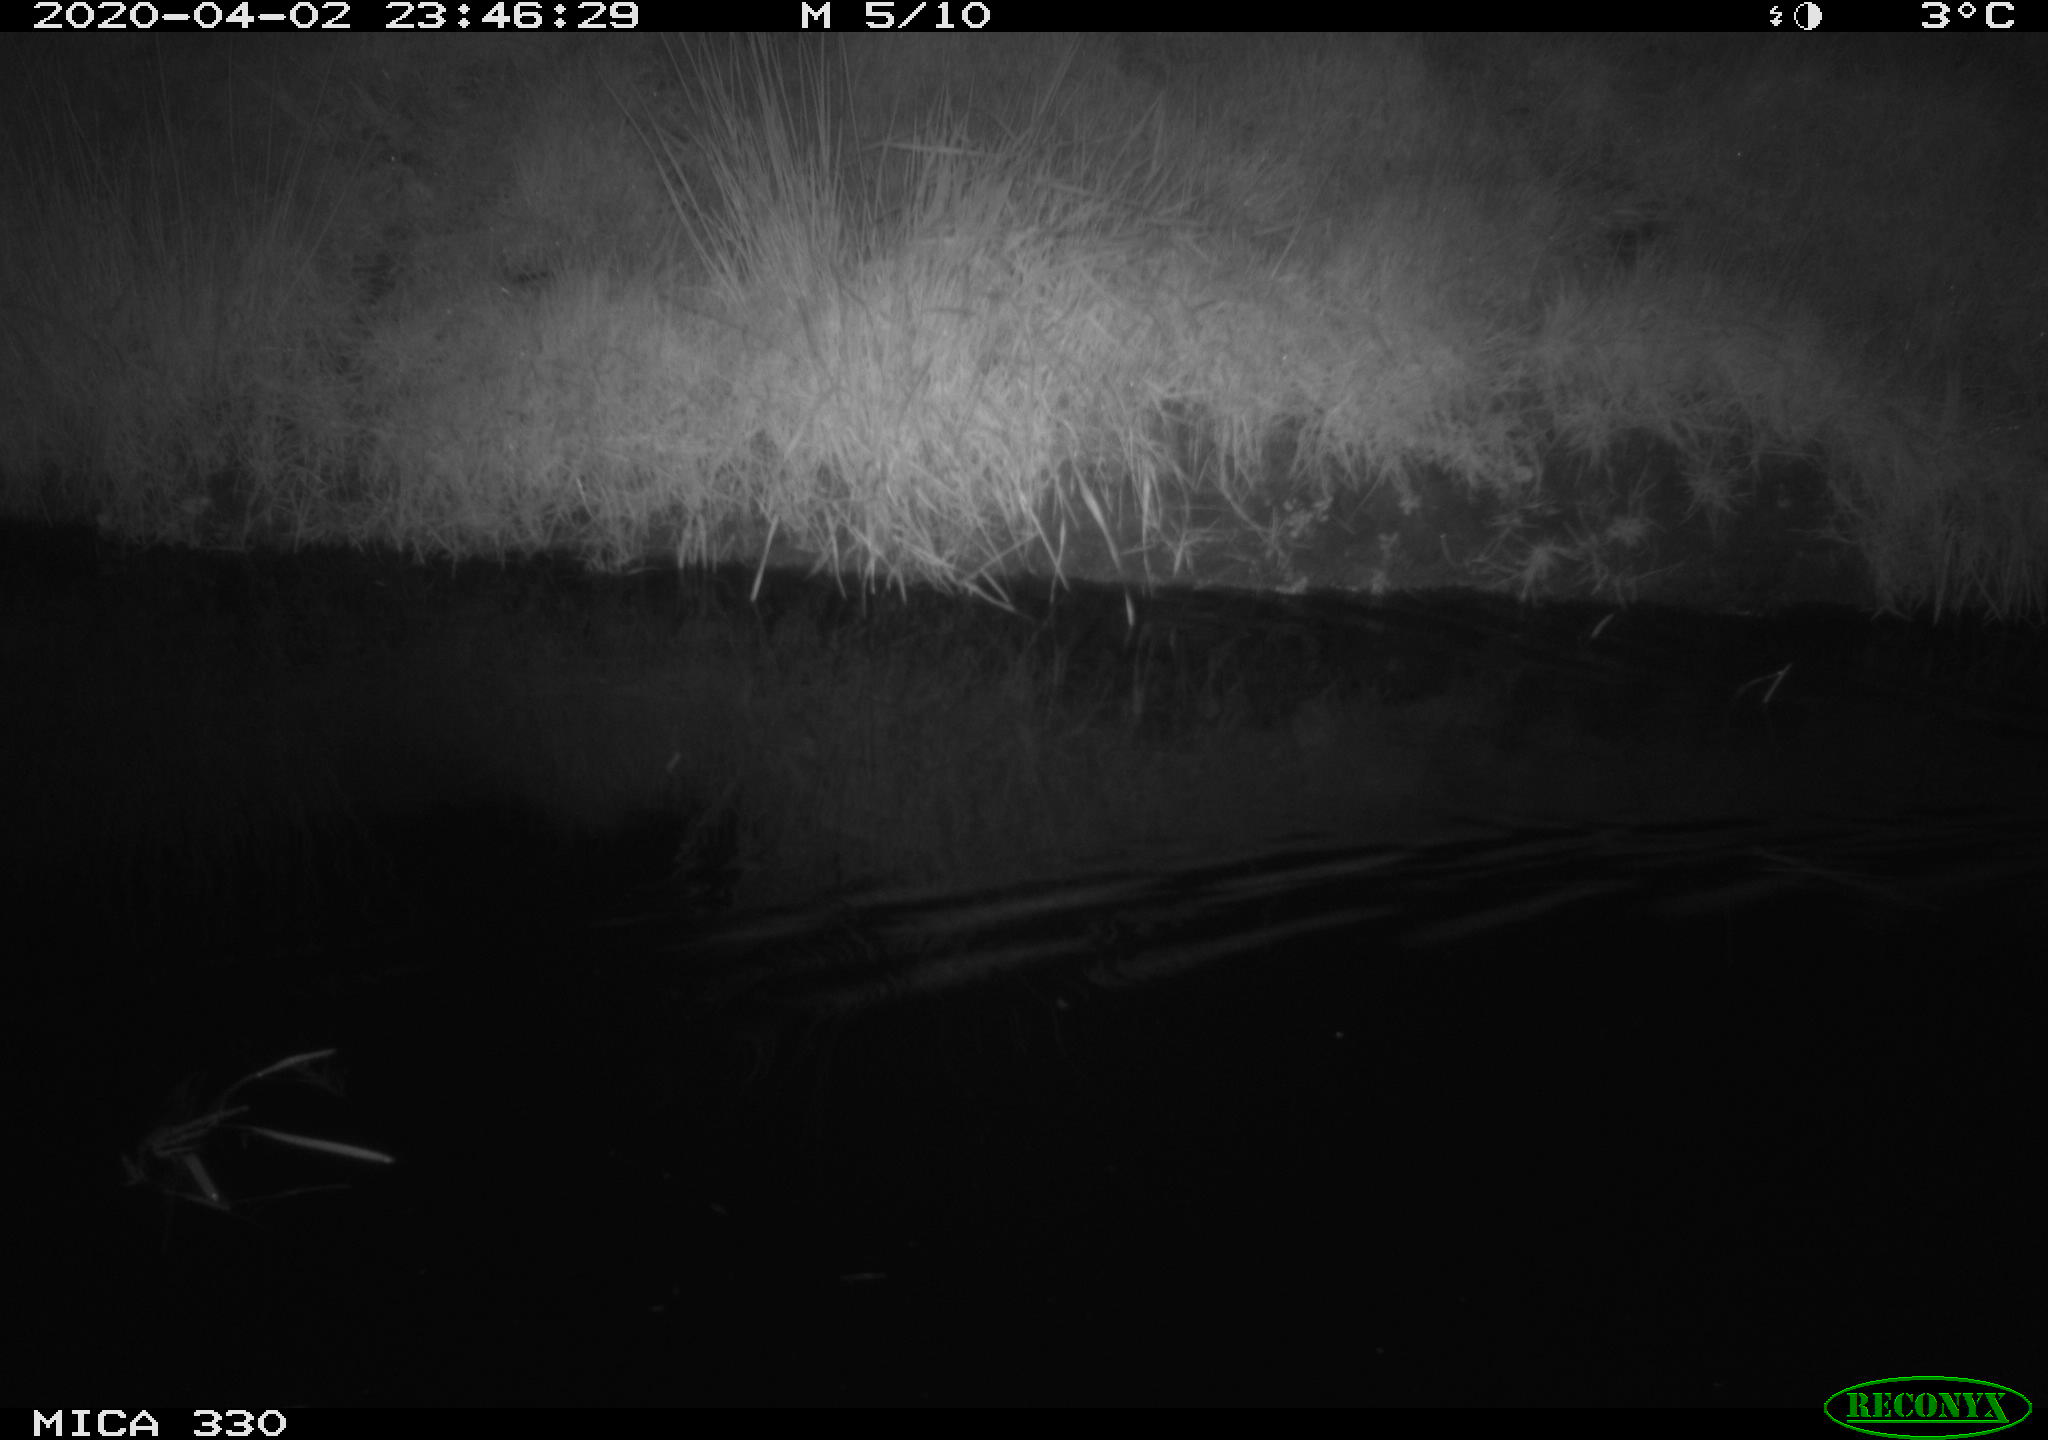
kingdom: Animalia
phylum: Chordata
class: Aves
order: Anseriformes
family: Anatidae
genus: Anas
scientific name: Anas platyrhynchos
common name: Mallard
